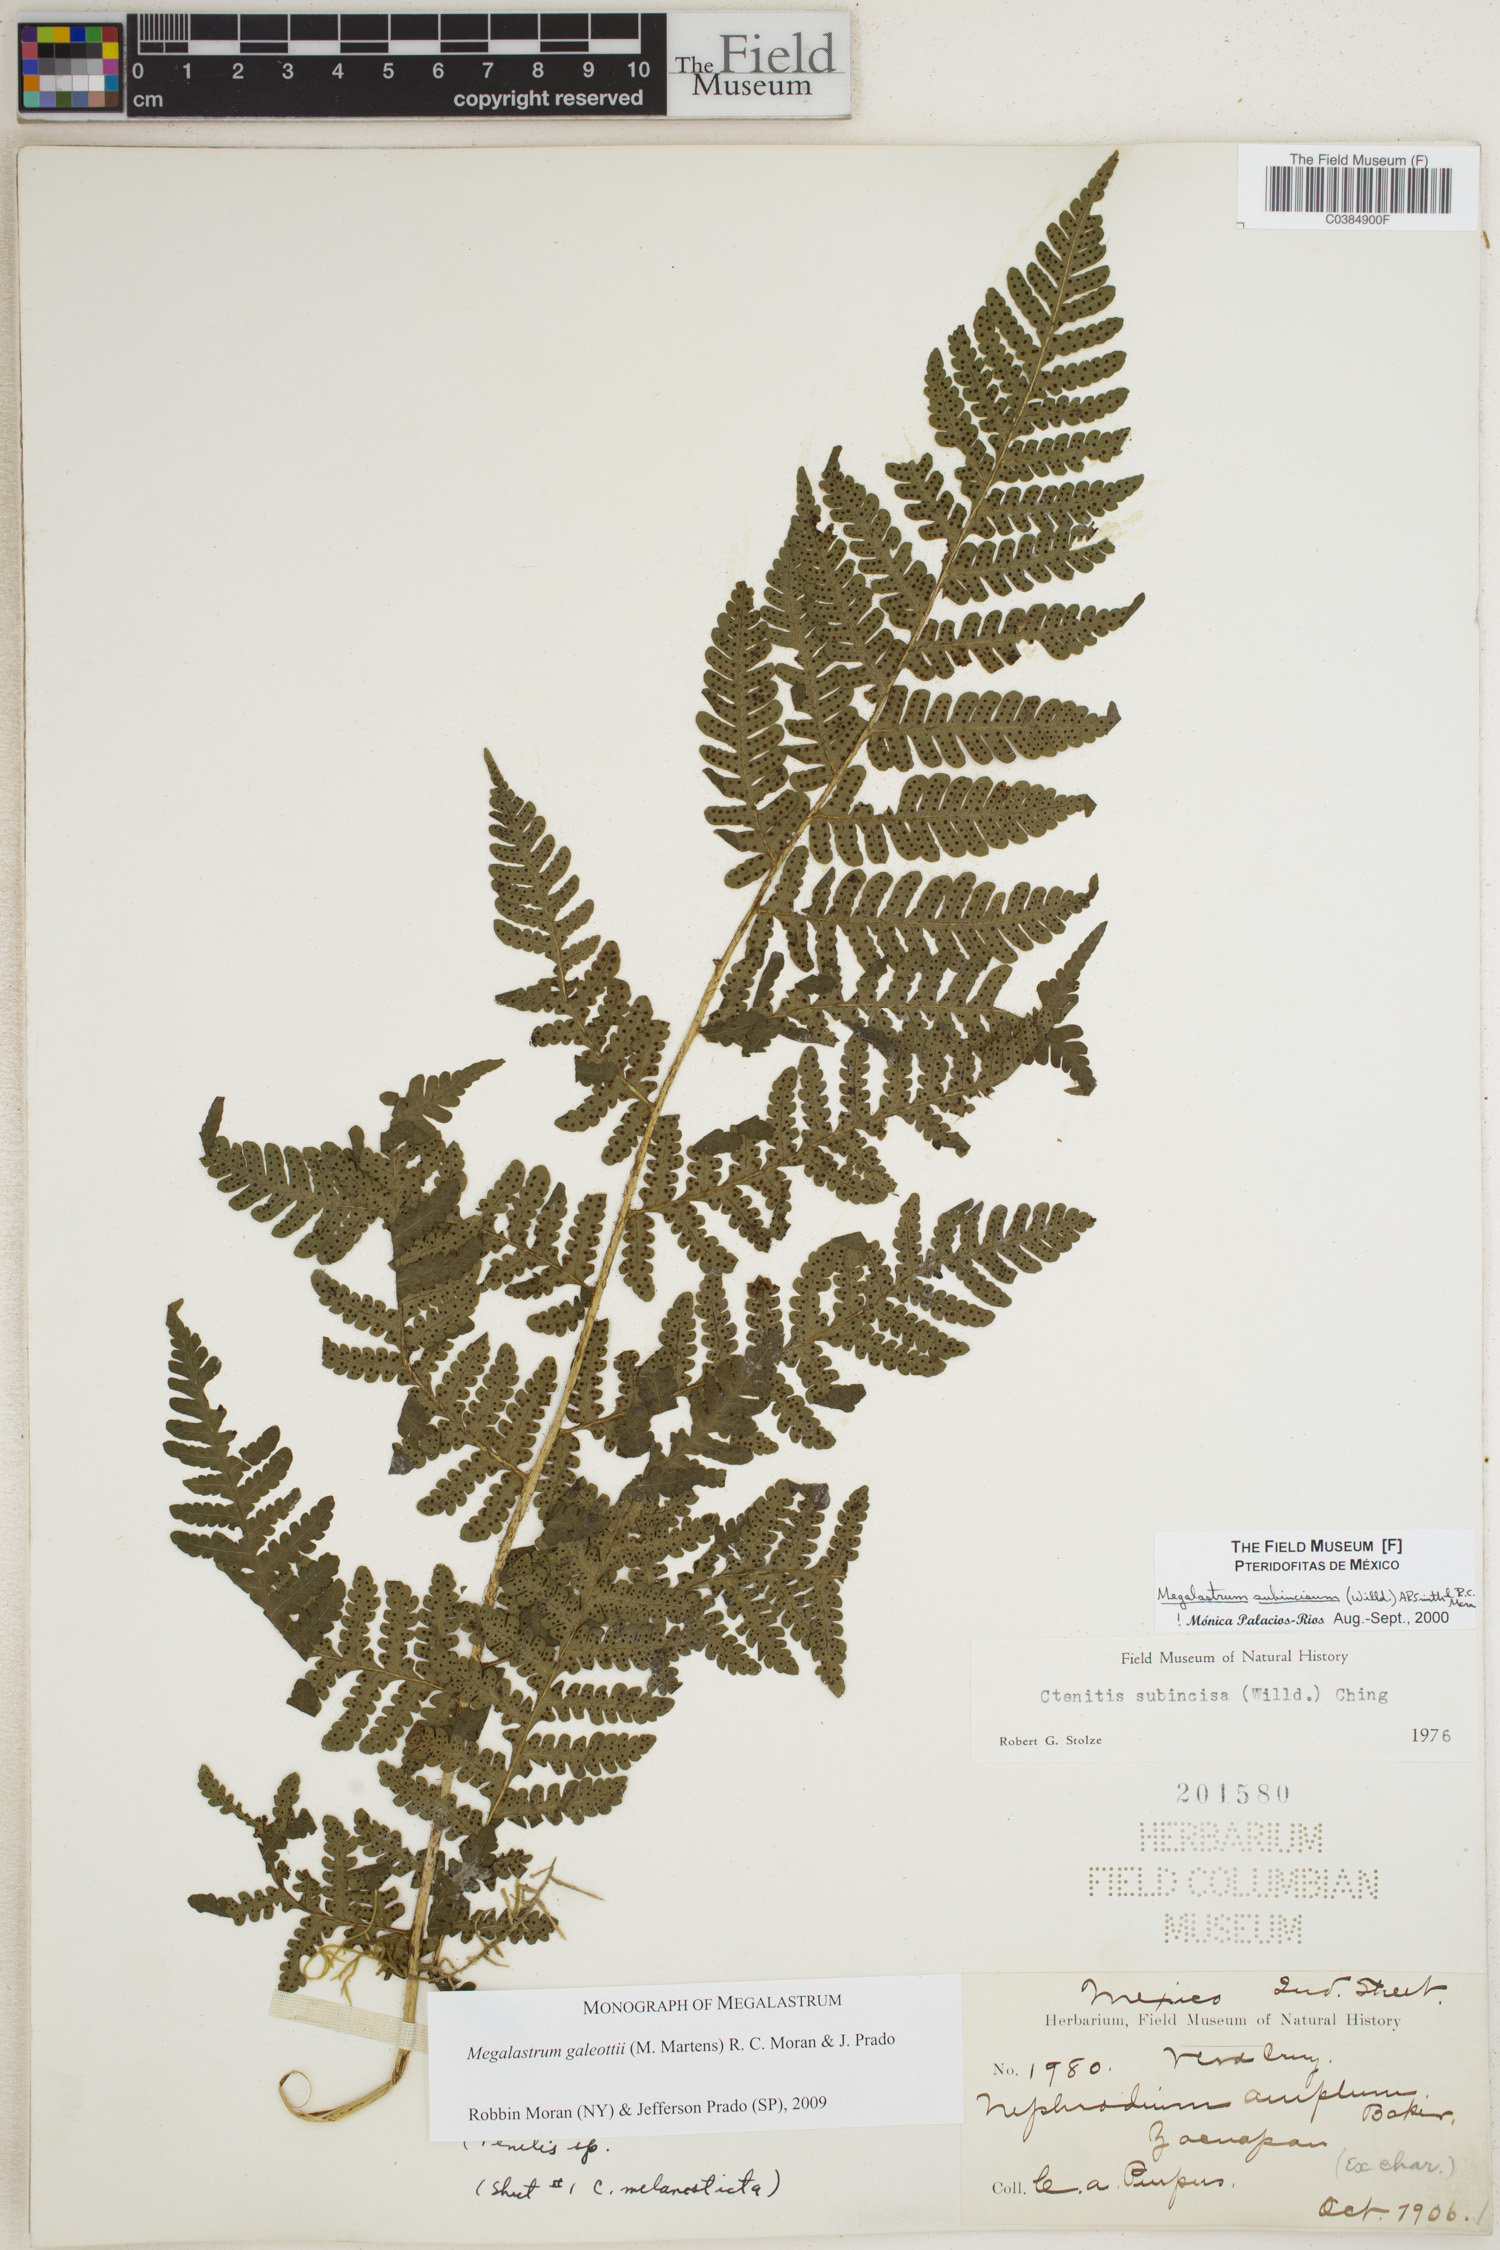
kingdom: Plantae
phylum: Tracheophyta
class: Polypodiopsida
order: Polypodiales
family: Dryopteridaceae
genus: Megalastrum
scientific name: Megalastrum galeottii
